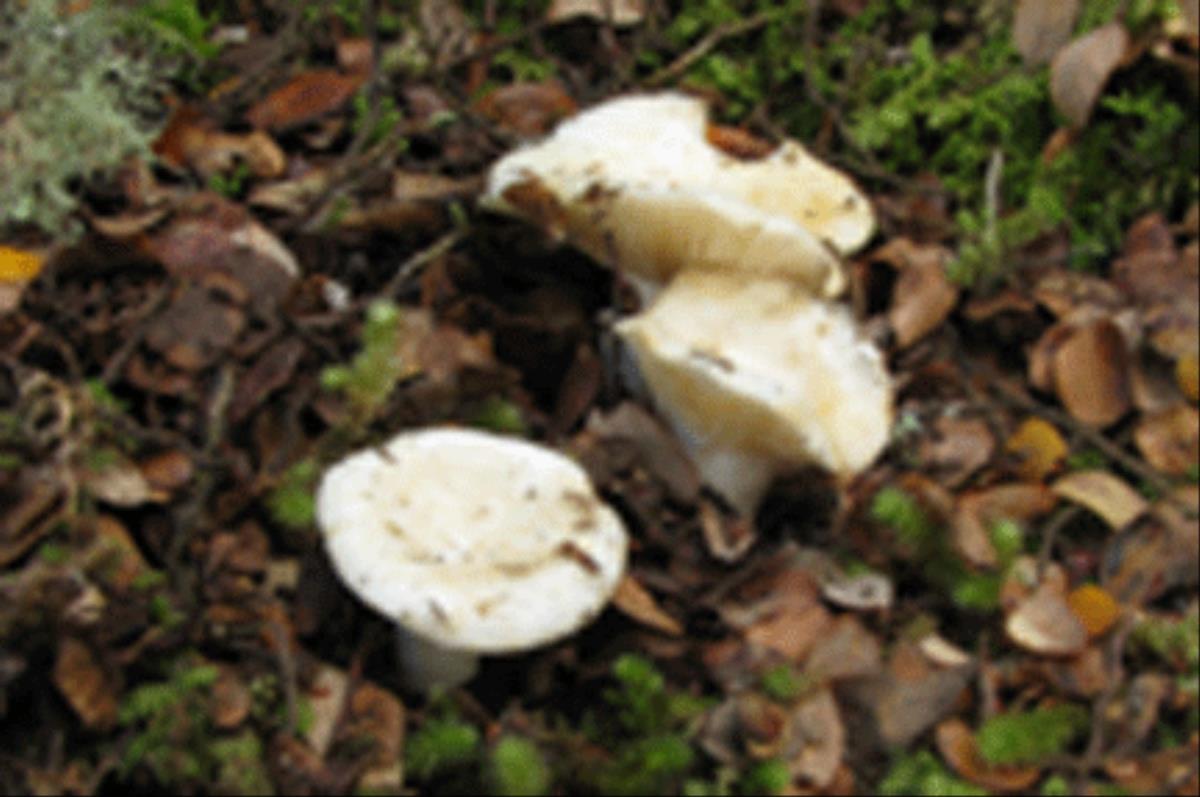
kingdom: Fungi
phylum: Basidiomycota
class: Agaricomycetes
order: Russulales
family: Russulaceae
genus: Russula
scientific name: Russula griseostipitata
